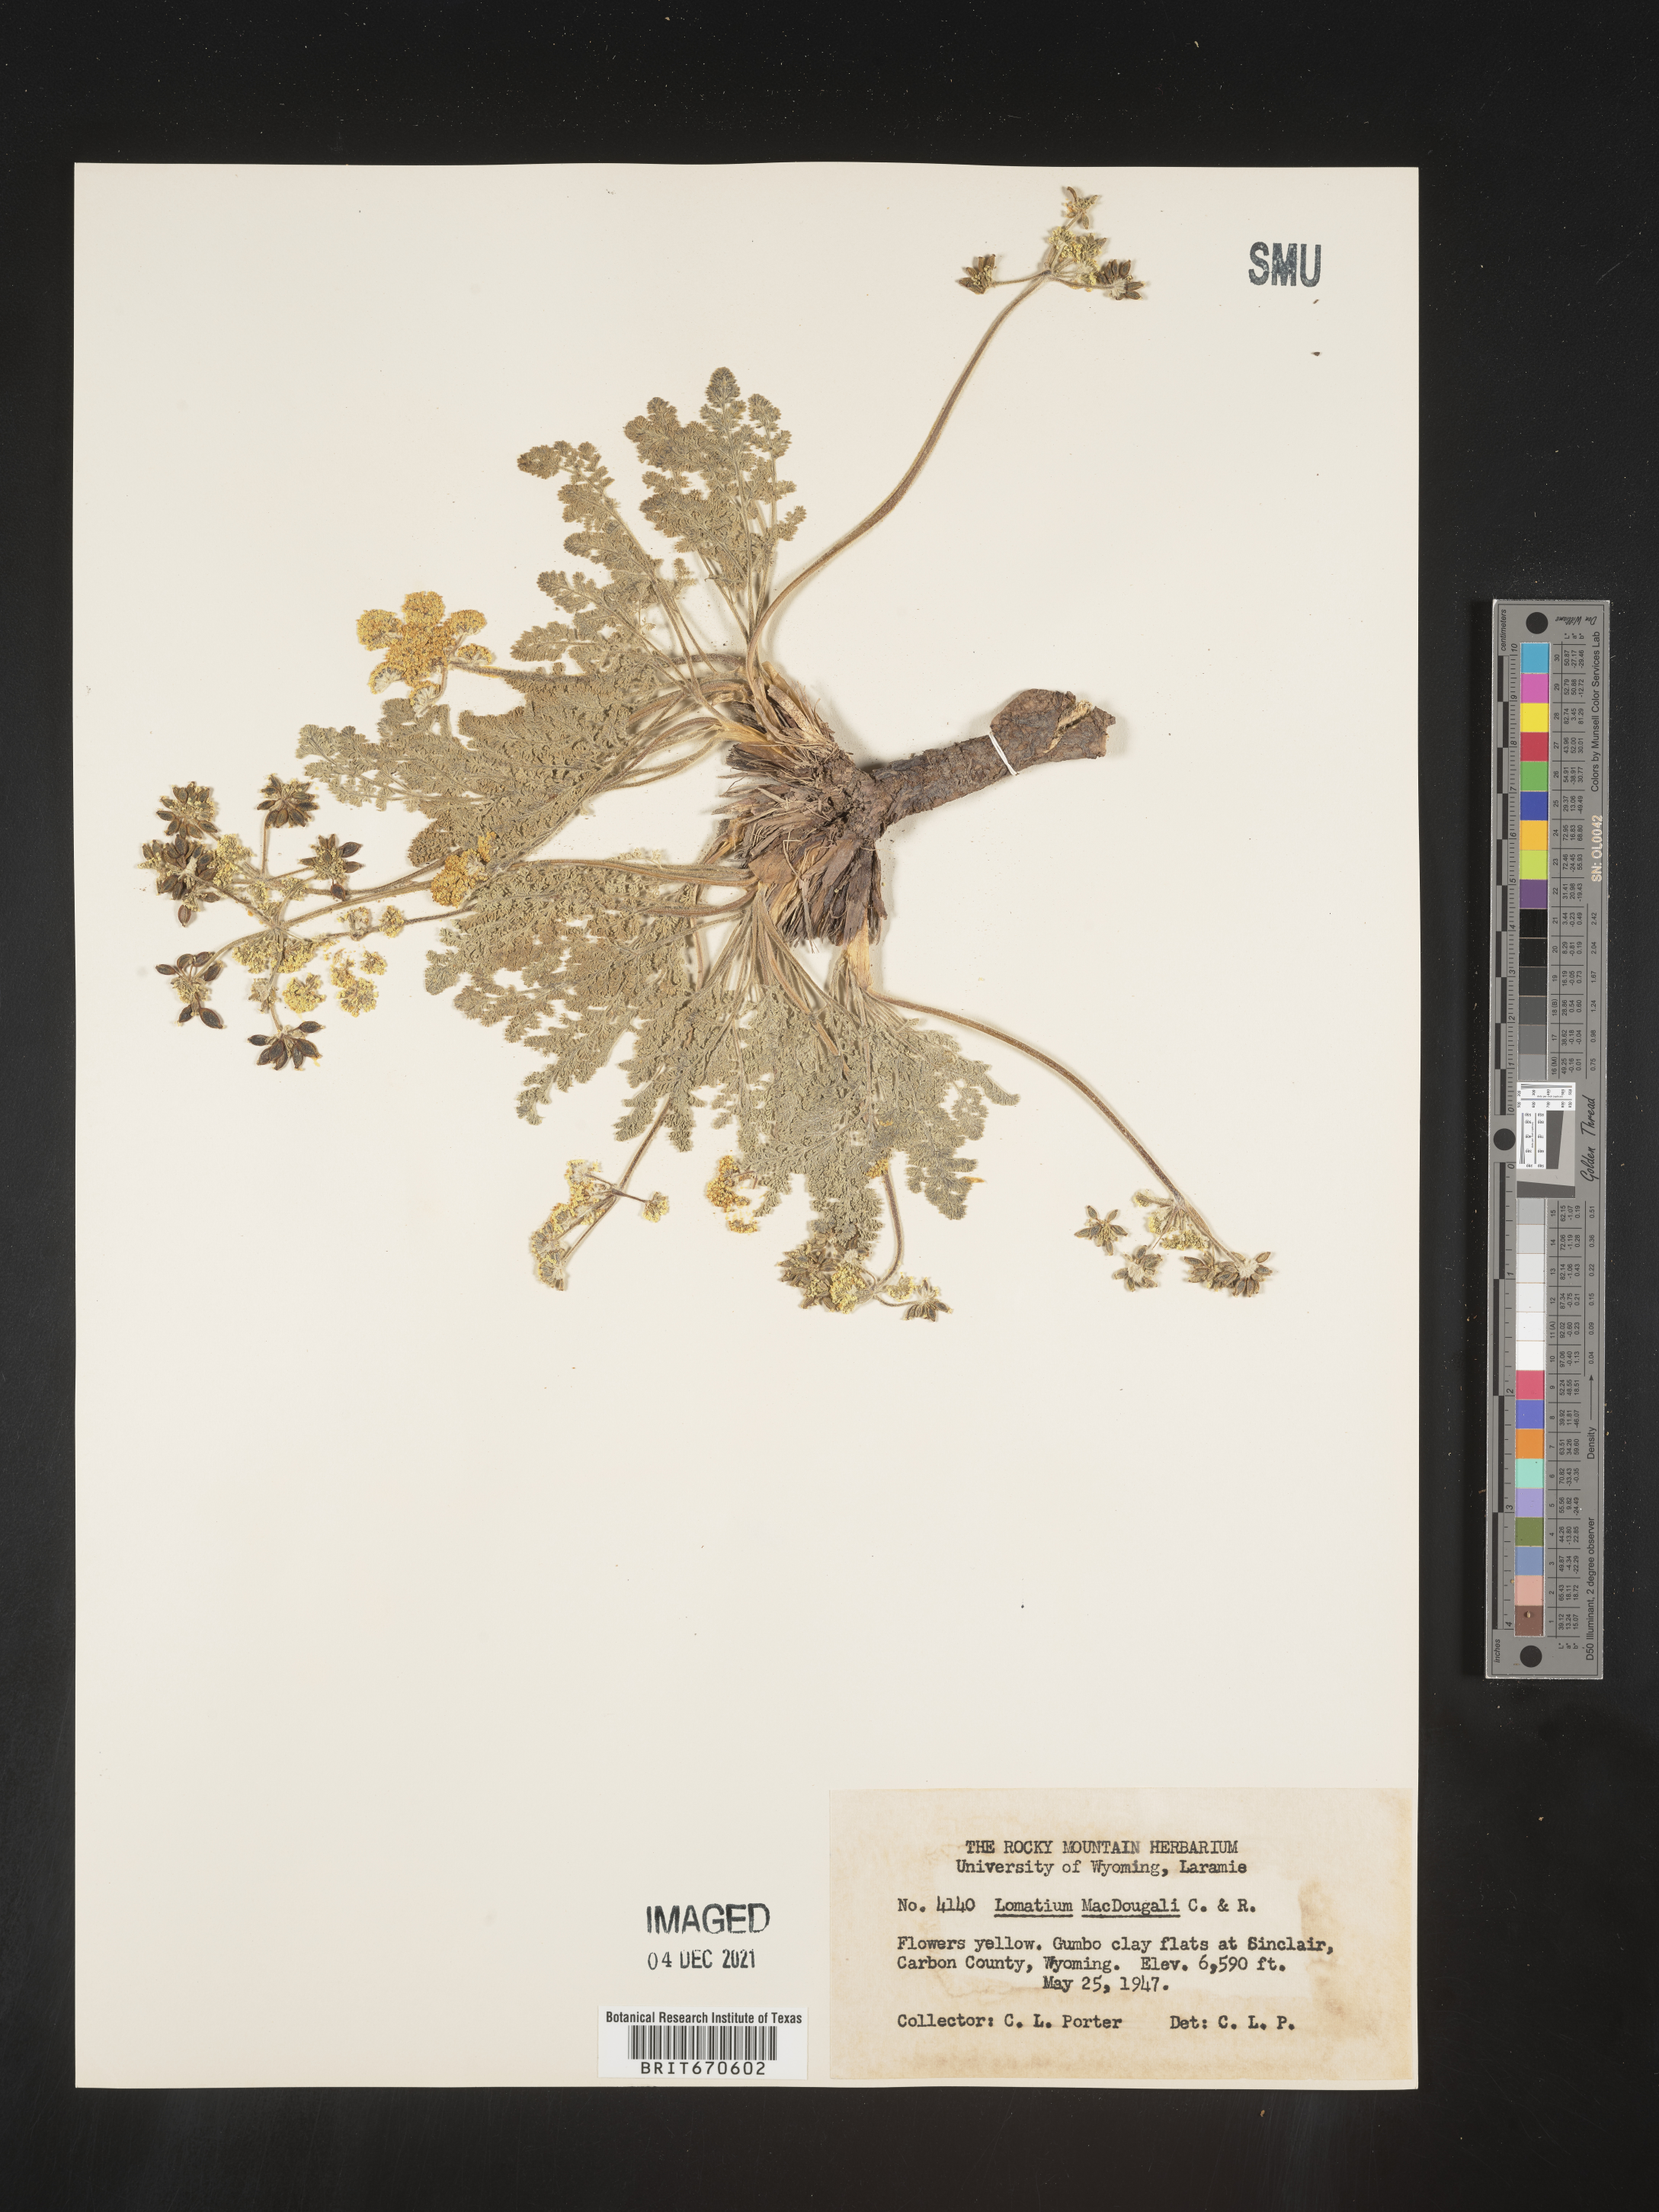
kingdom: Plantae
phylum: Tracheophyta
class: Magnoliopsida
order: Apiales
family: Apiaceae
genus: Lomatium
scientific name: Lomatium foeniculaceum
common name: Desert-parsley
